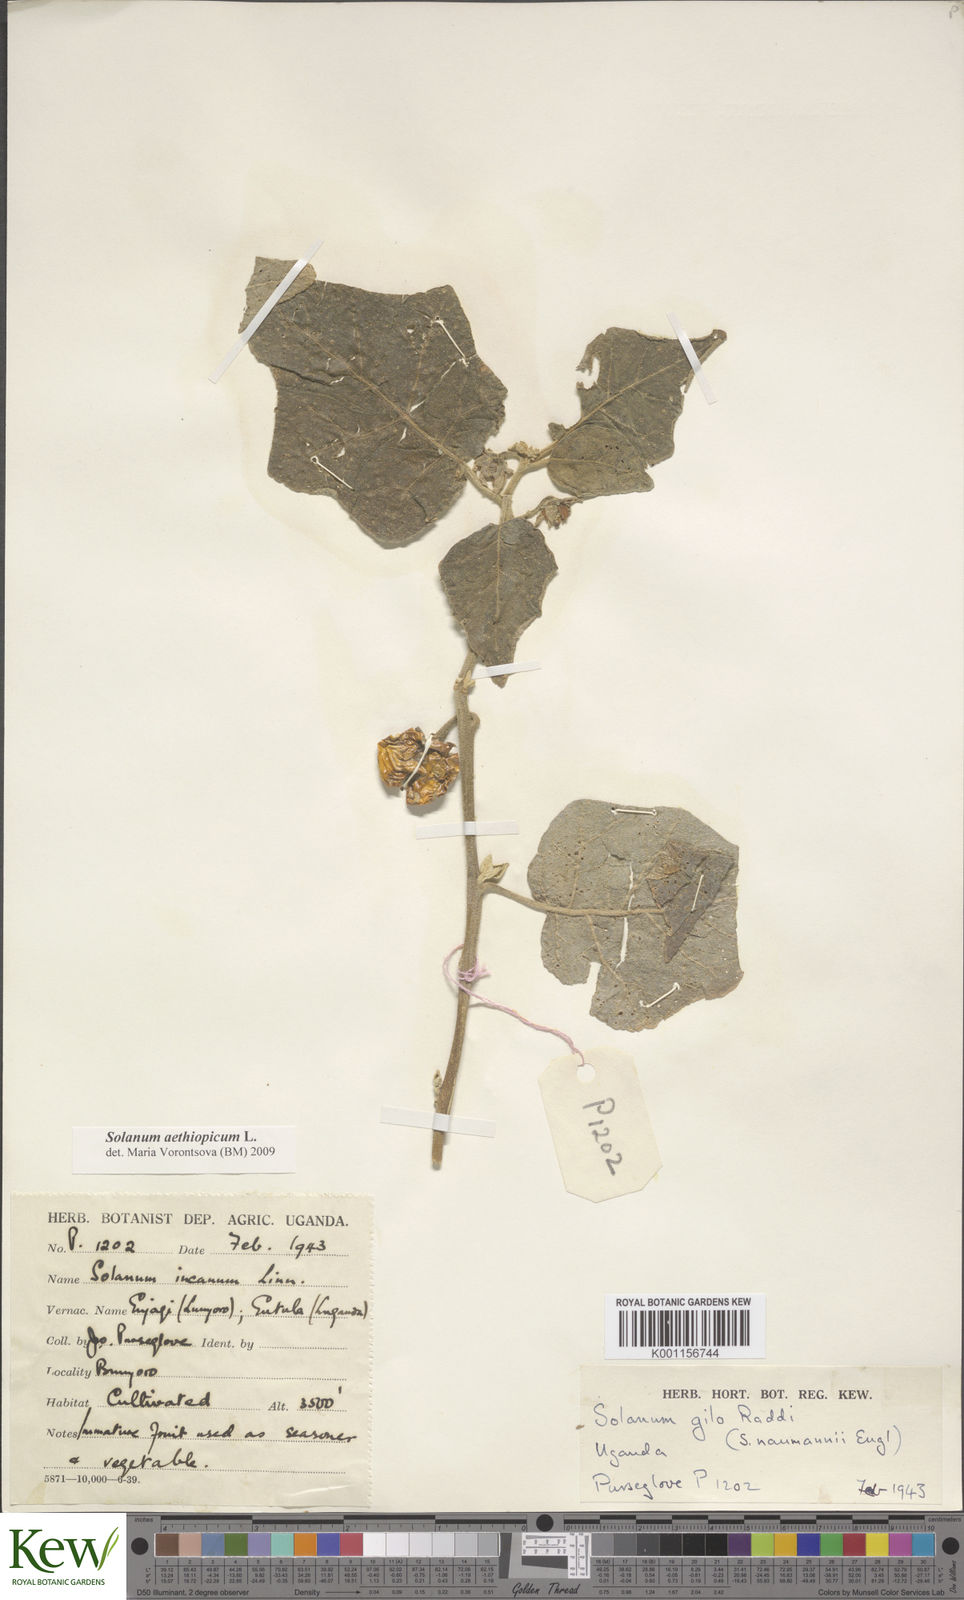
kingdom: Plantae
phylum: Tracheophyta
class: Magnoliopsida
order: Solanales
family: Solanaceae
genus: Solanum
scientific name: Solanum aethiopicum
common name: Gilo
